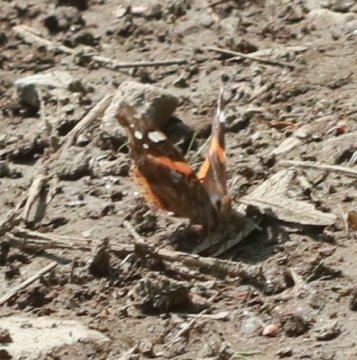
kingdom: Animalia
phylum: Arthropoda
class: Insecta
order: Lepidoptera
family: Nymphalidae
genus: Vanessa
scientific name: Vanessa atalanta
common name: Red Admiral
